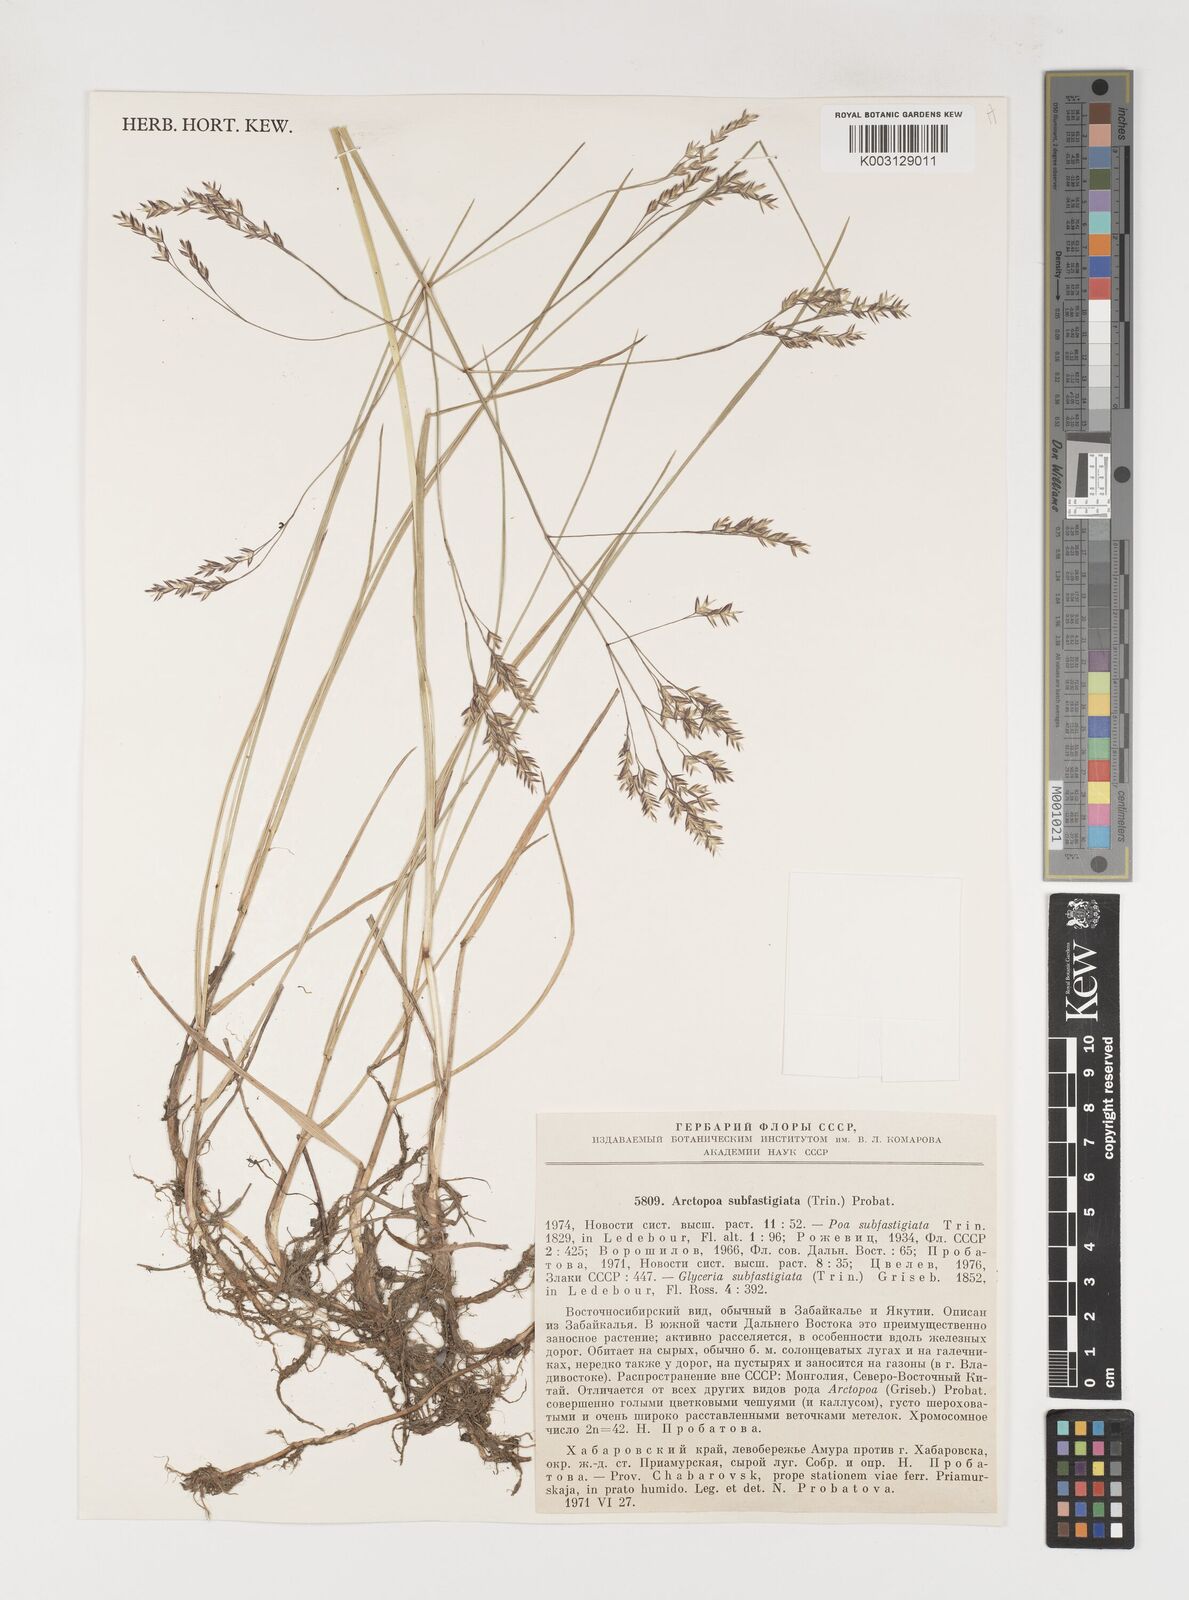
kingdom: Plantae
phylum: Tracheophyta
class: Liliopsida
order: Poales
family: Poaceae
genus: Arctopoa
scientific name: Arctopoa subfastigiata
